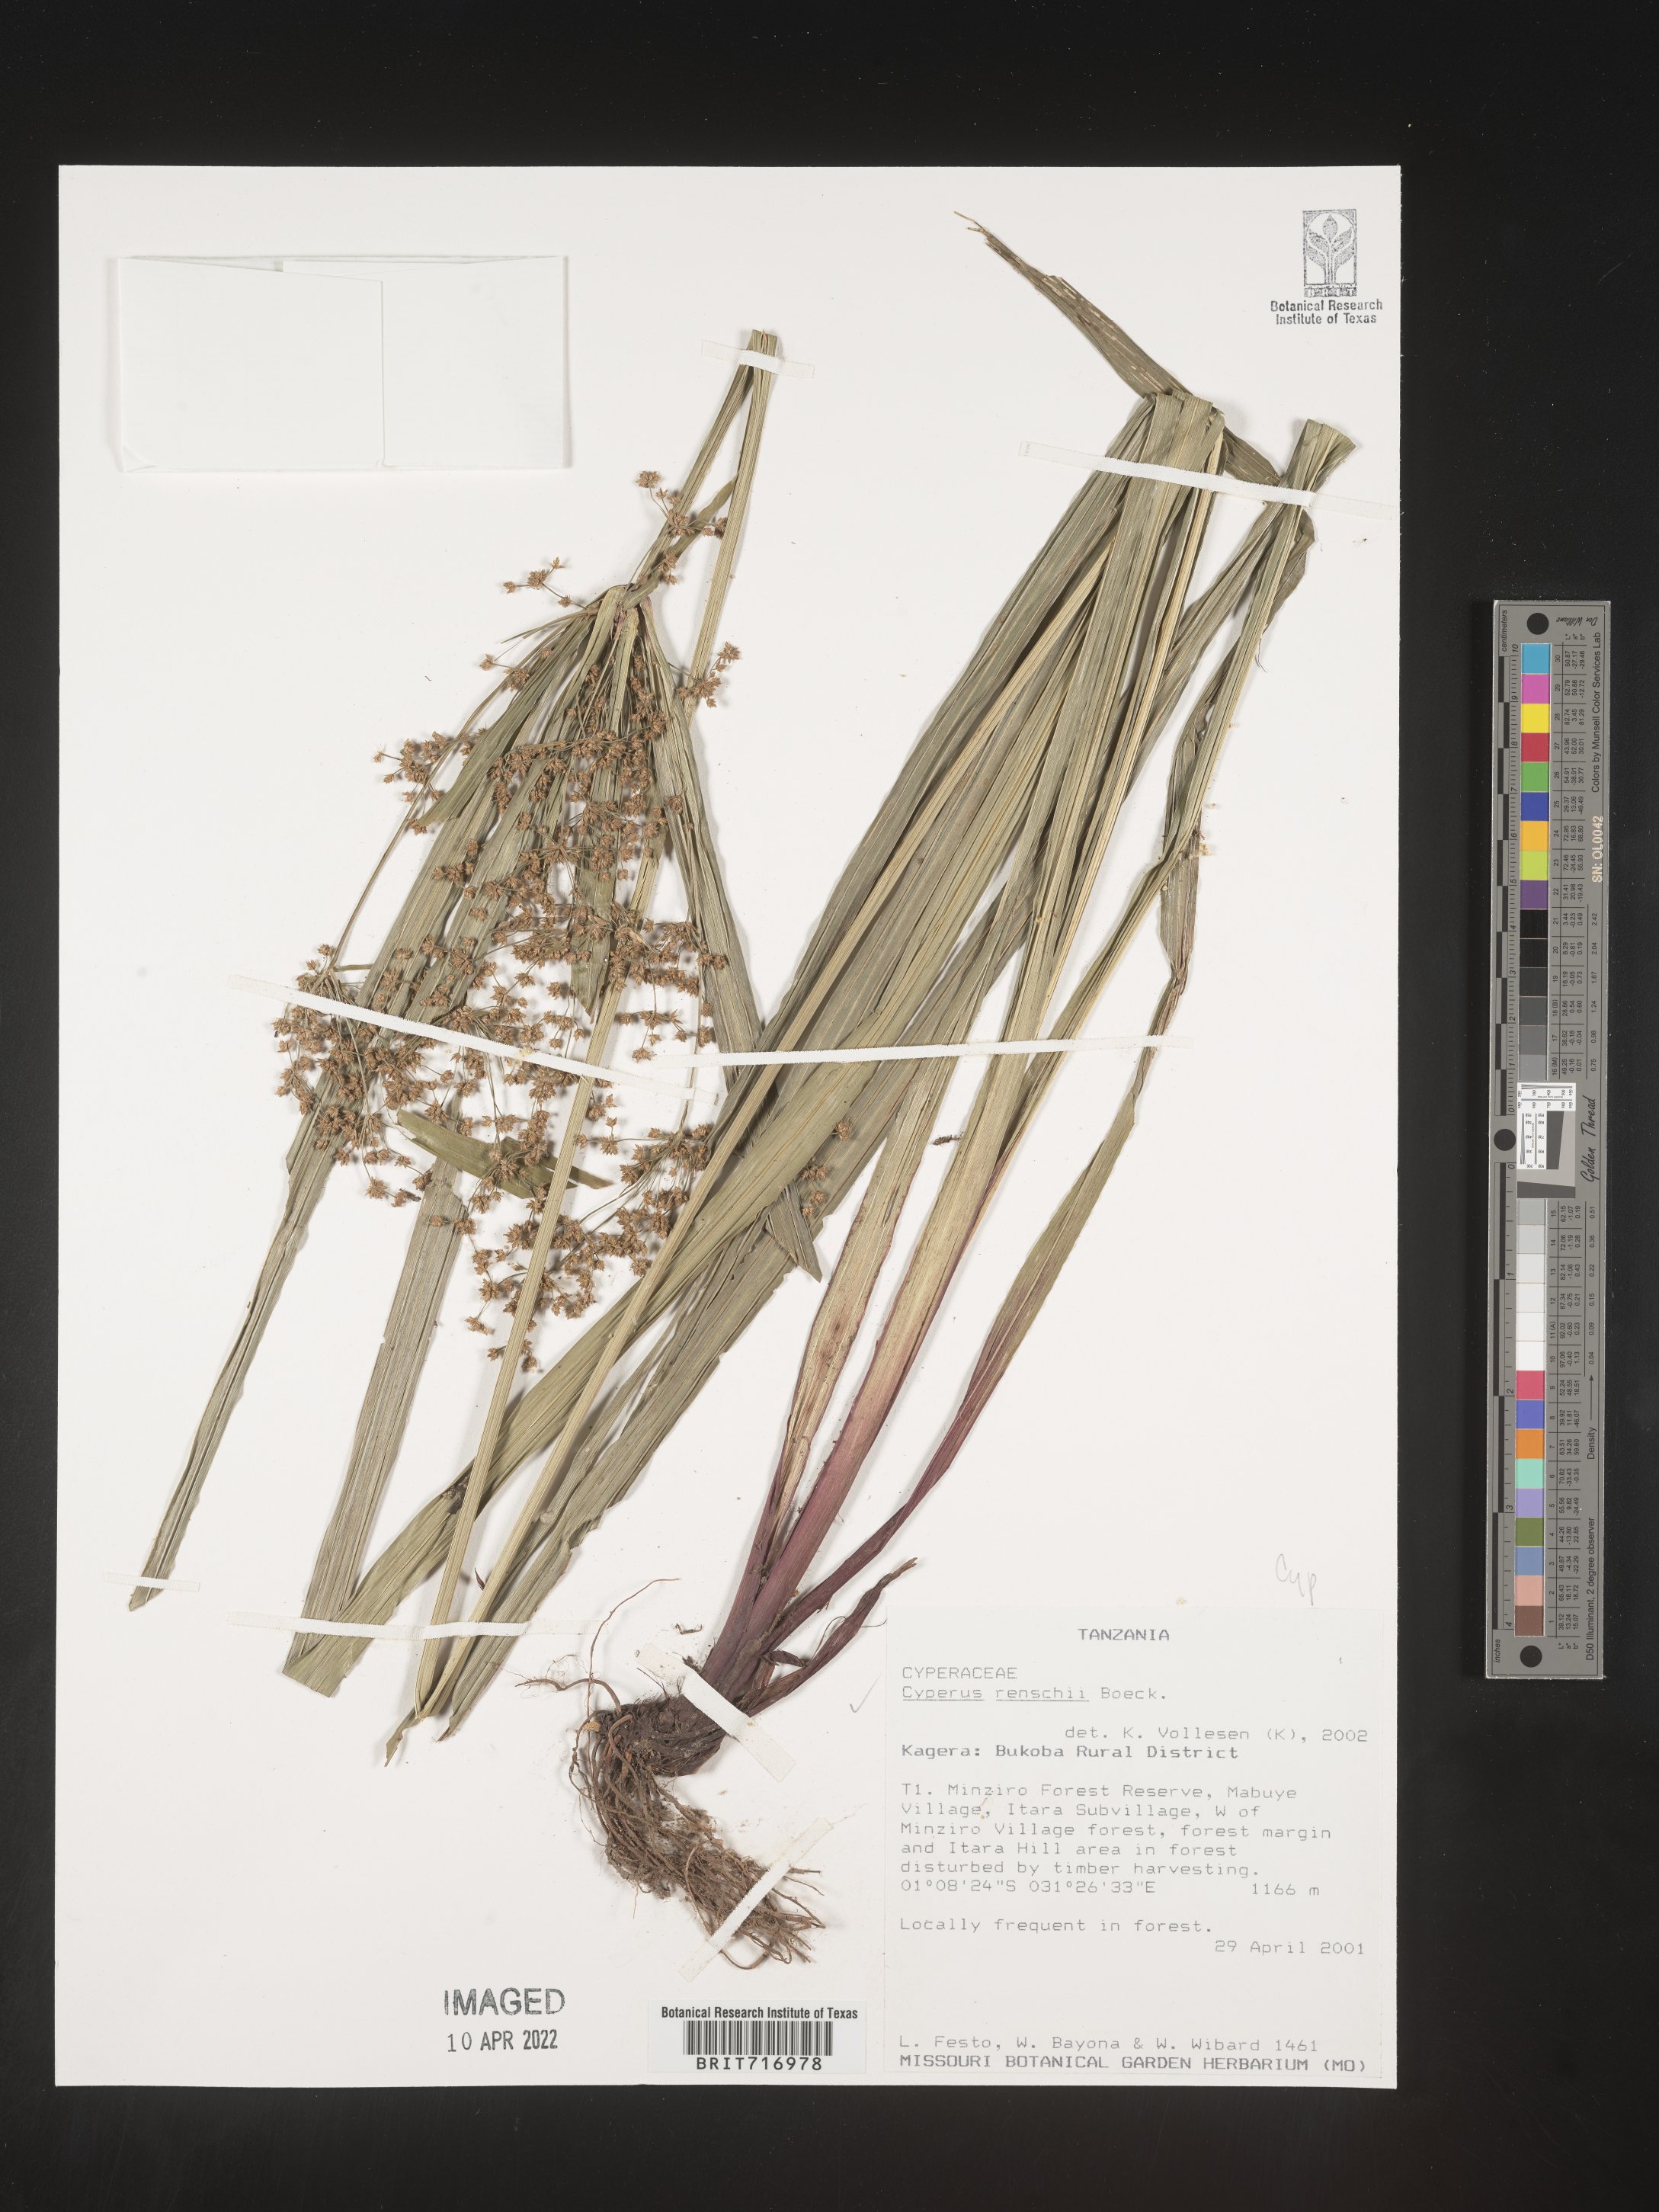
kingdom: Plantae
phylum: Tracheophyta
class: Liliopsida
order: Poales
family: Cyperaceae
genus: Cyperus
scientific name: Cyperus
